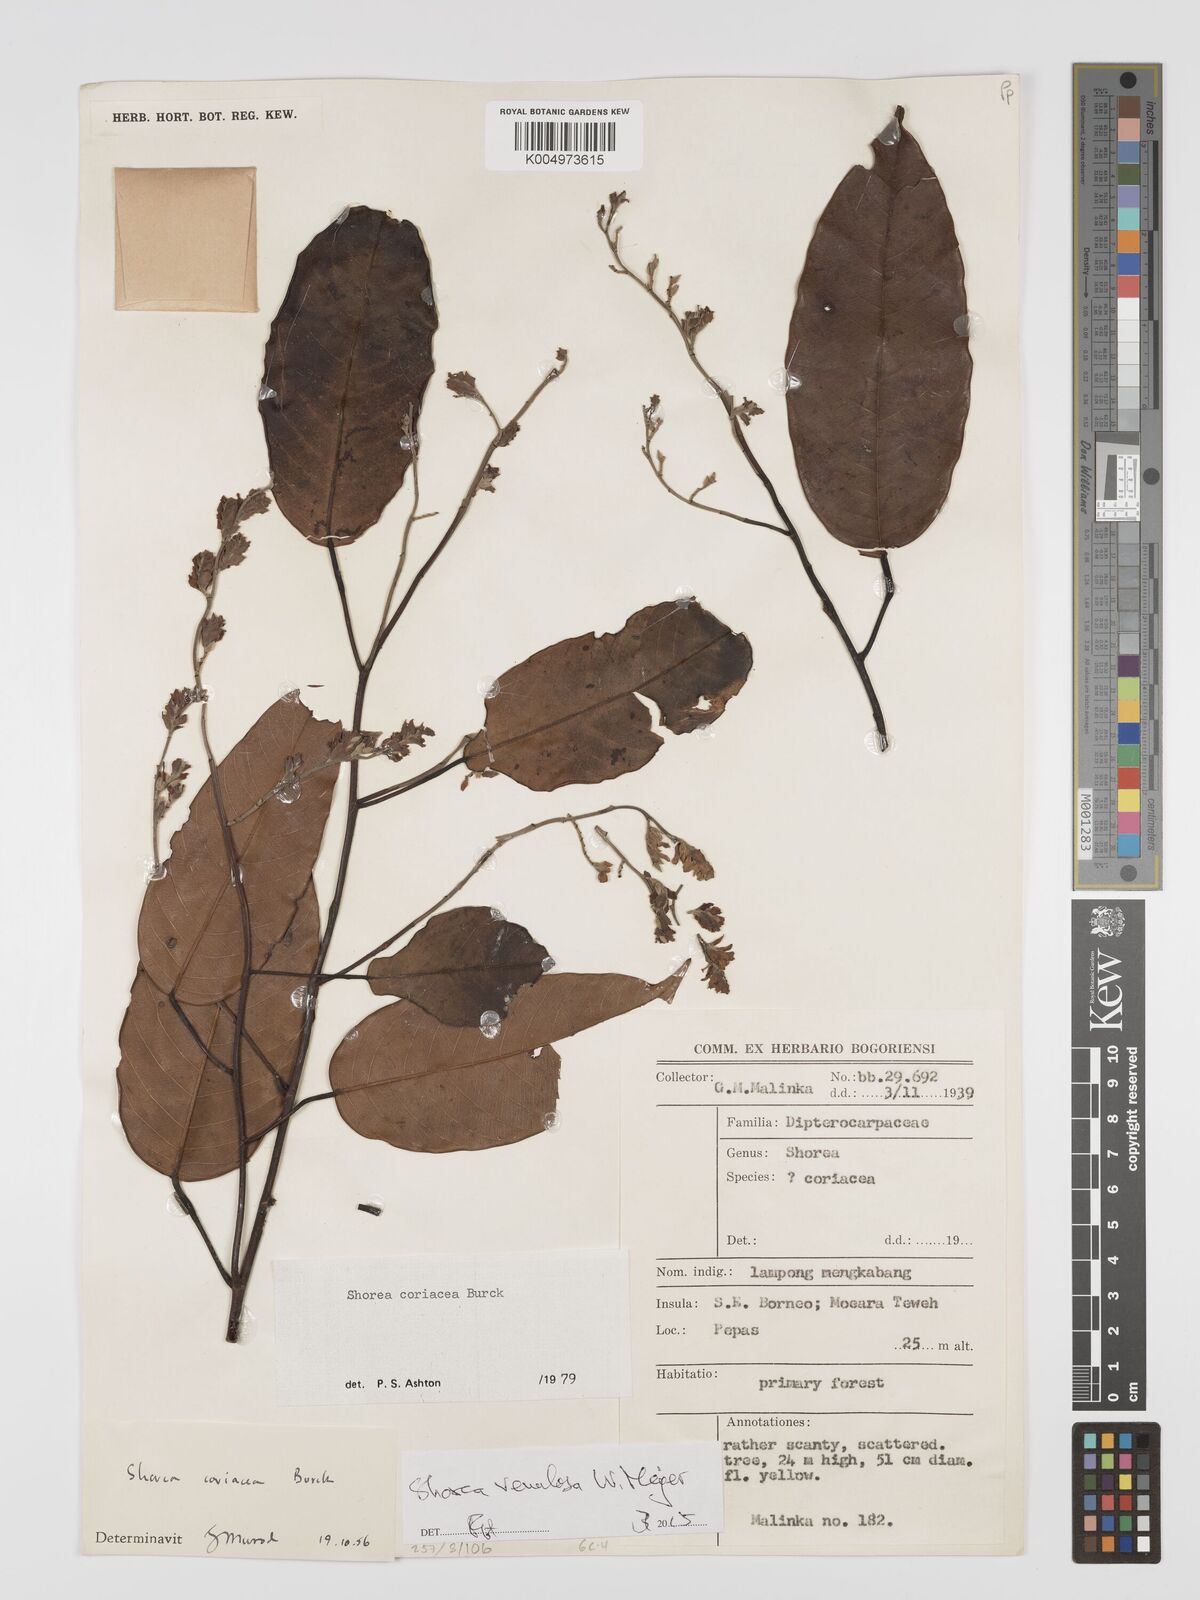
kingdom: Plantae
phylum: Tracheophyta
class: Magnoliopsida
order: Malvales
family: Dipterocarpaceae
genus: Shorea
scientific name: Shorea venulosa
